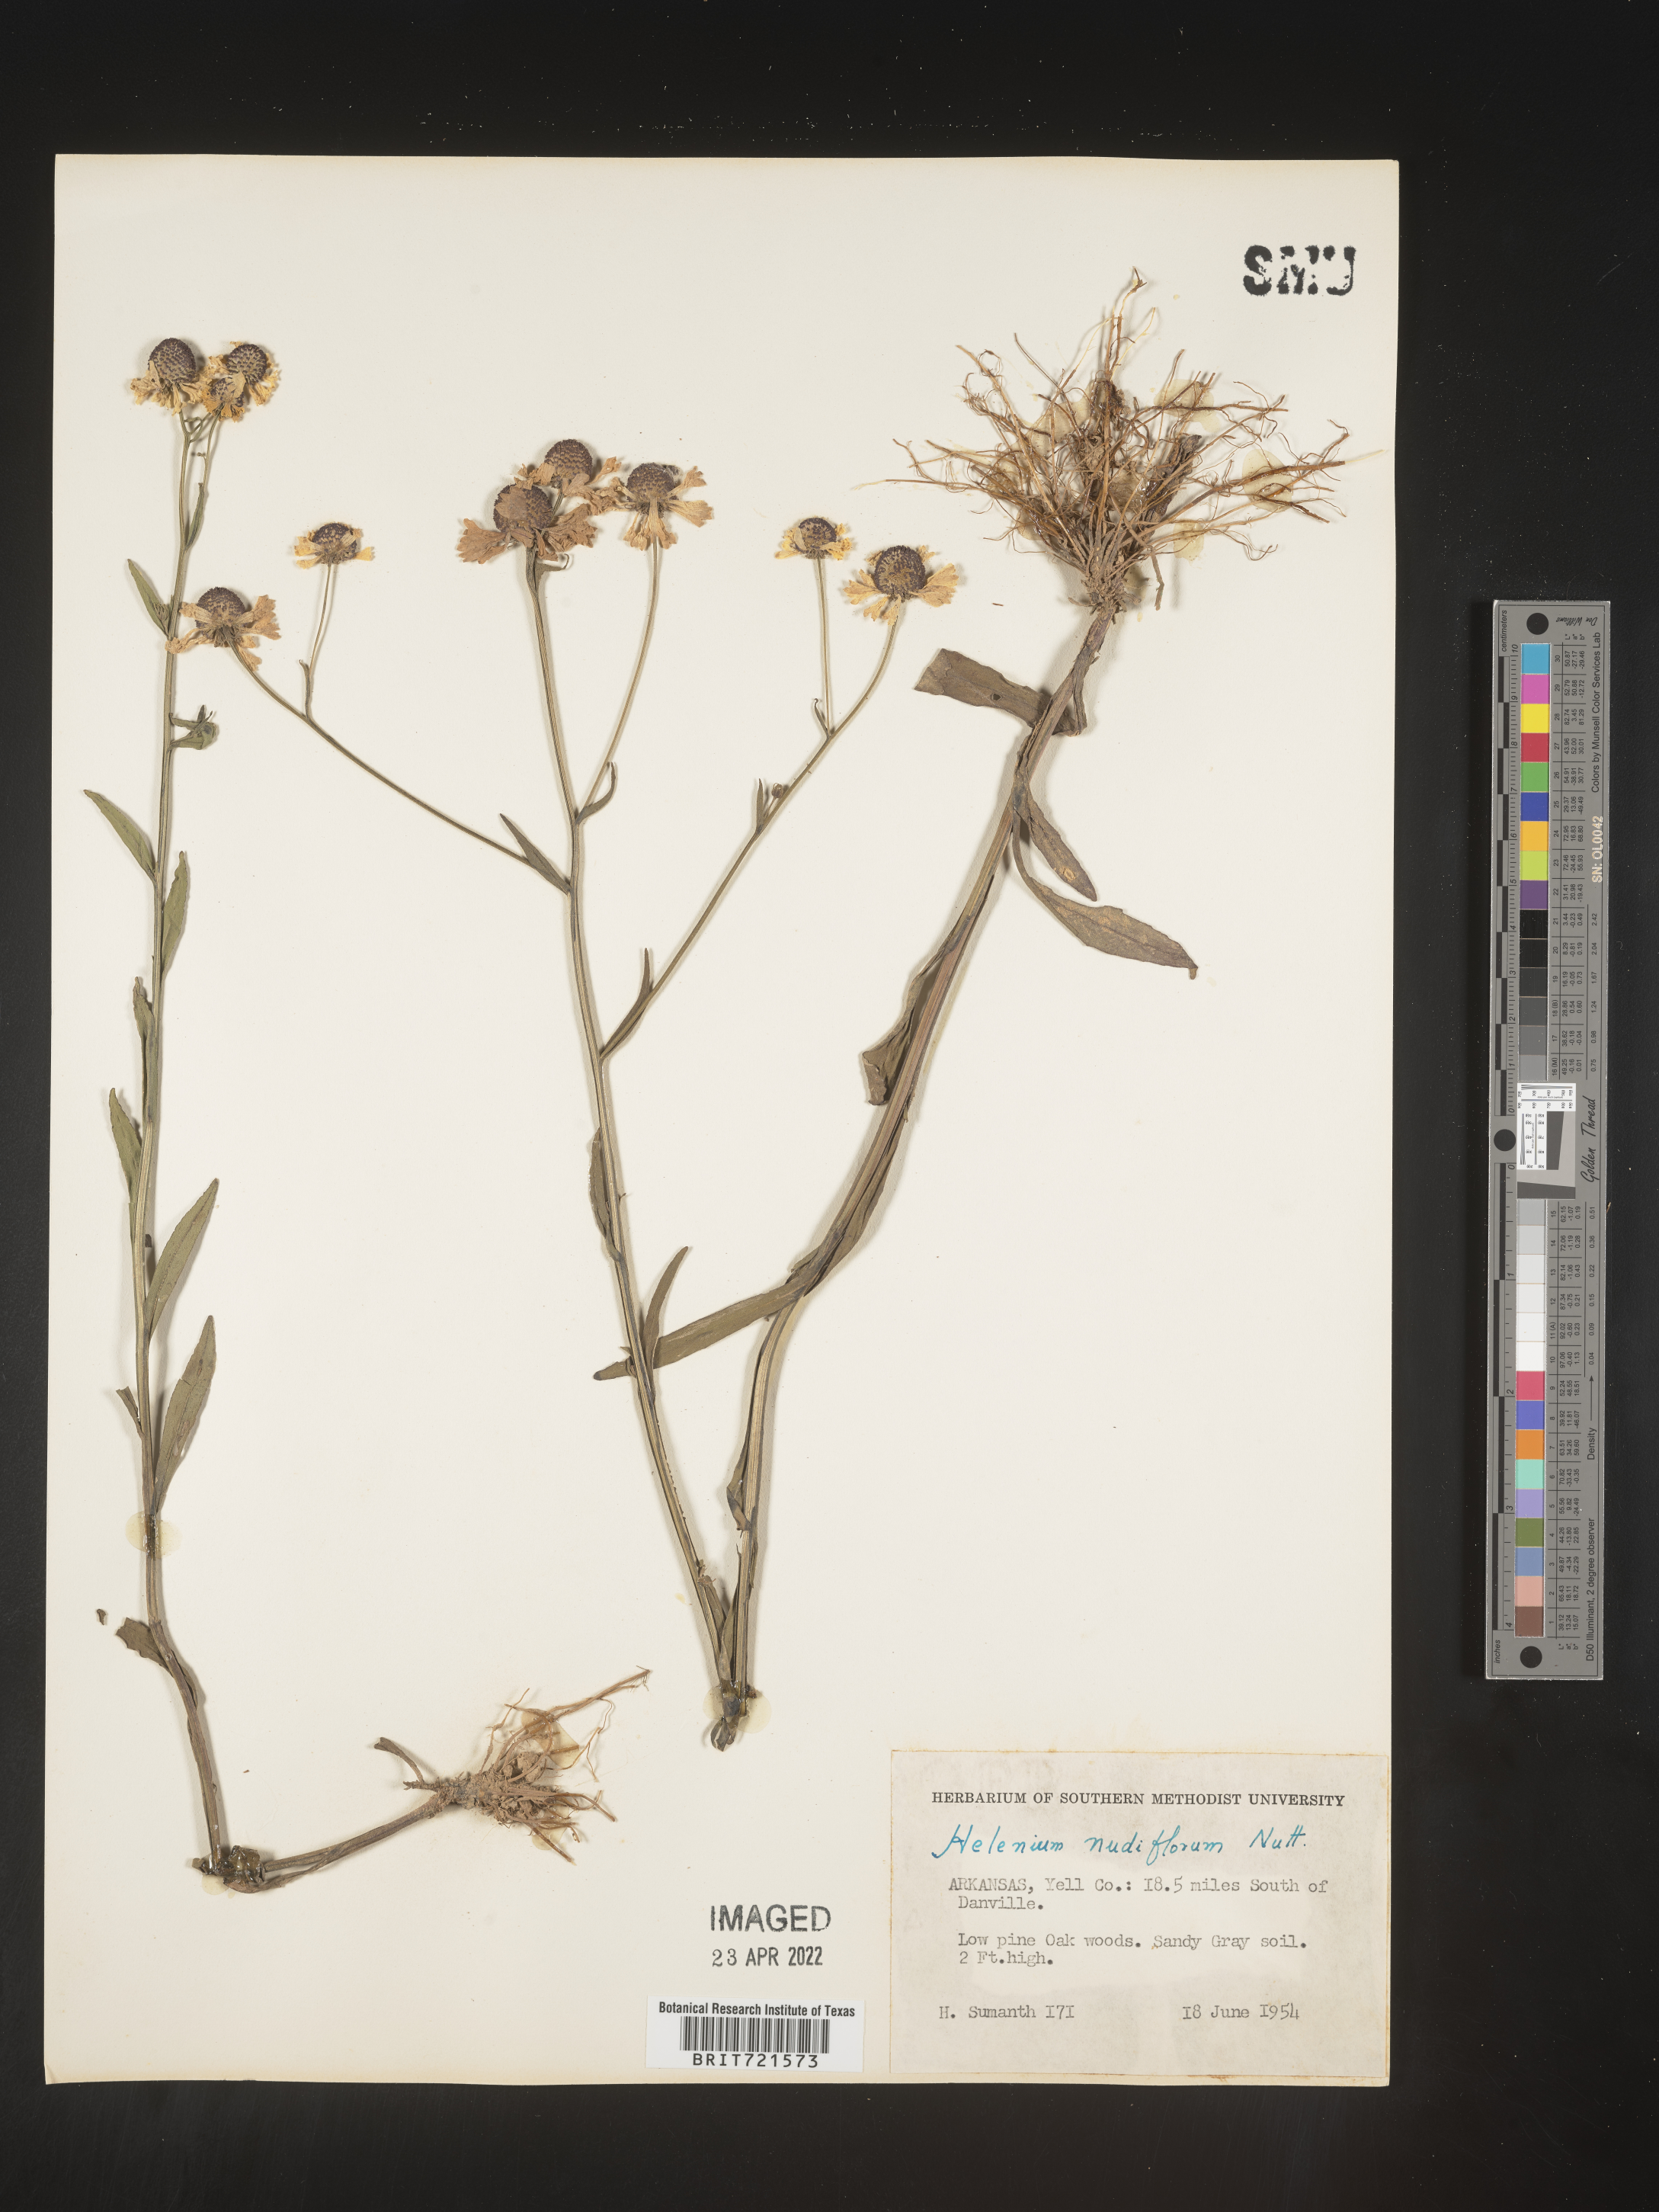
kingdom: Plantae
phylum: Tracheophyta
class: Magnoliopsida
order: Asterales
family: Asteraceae
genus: Helenium
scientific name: Helenium flexuosum
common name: Naked-flowered sneezeweed
